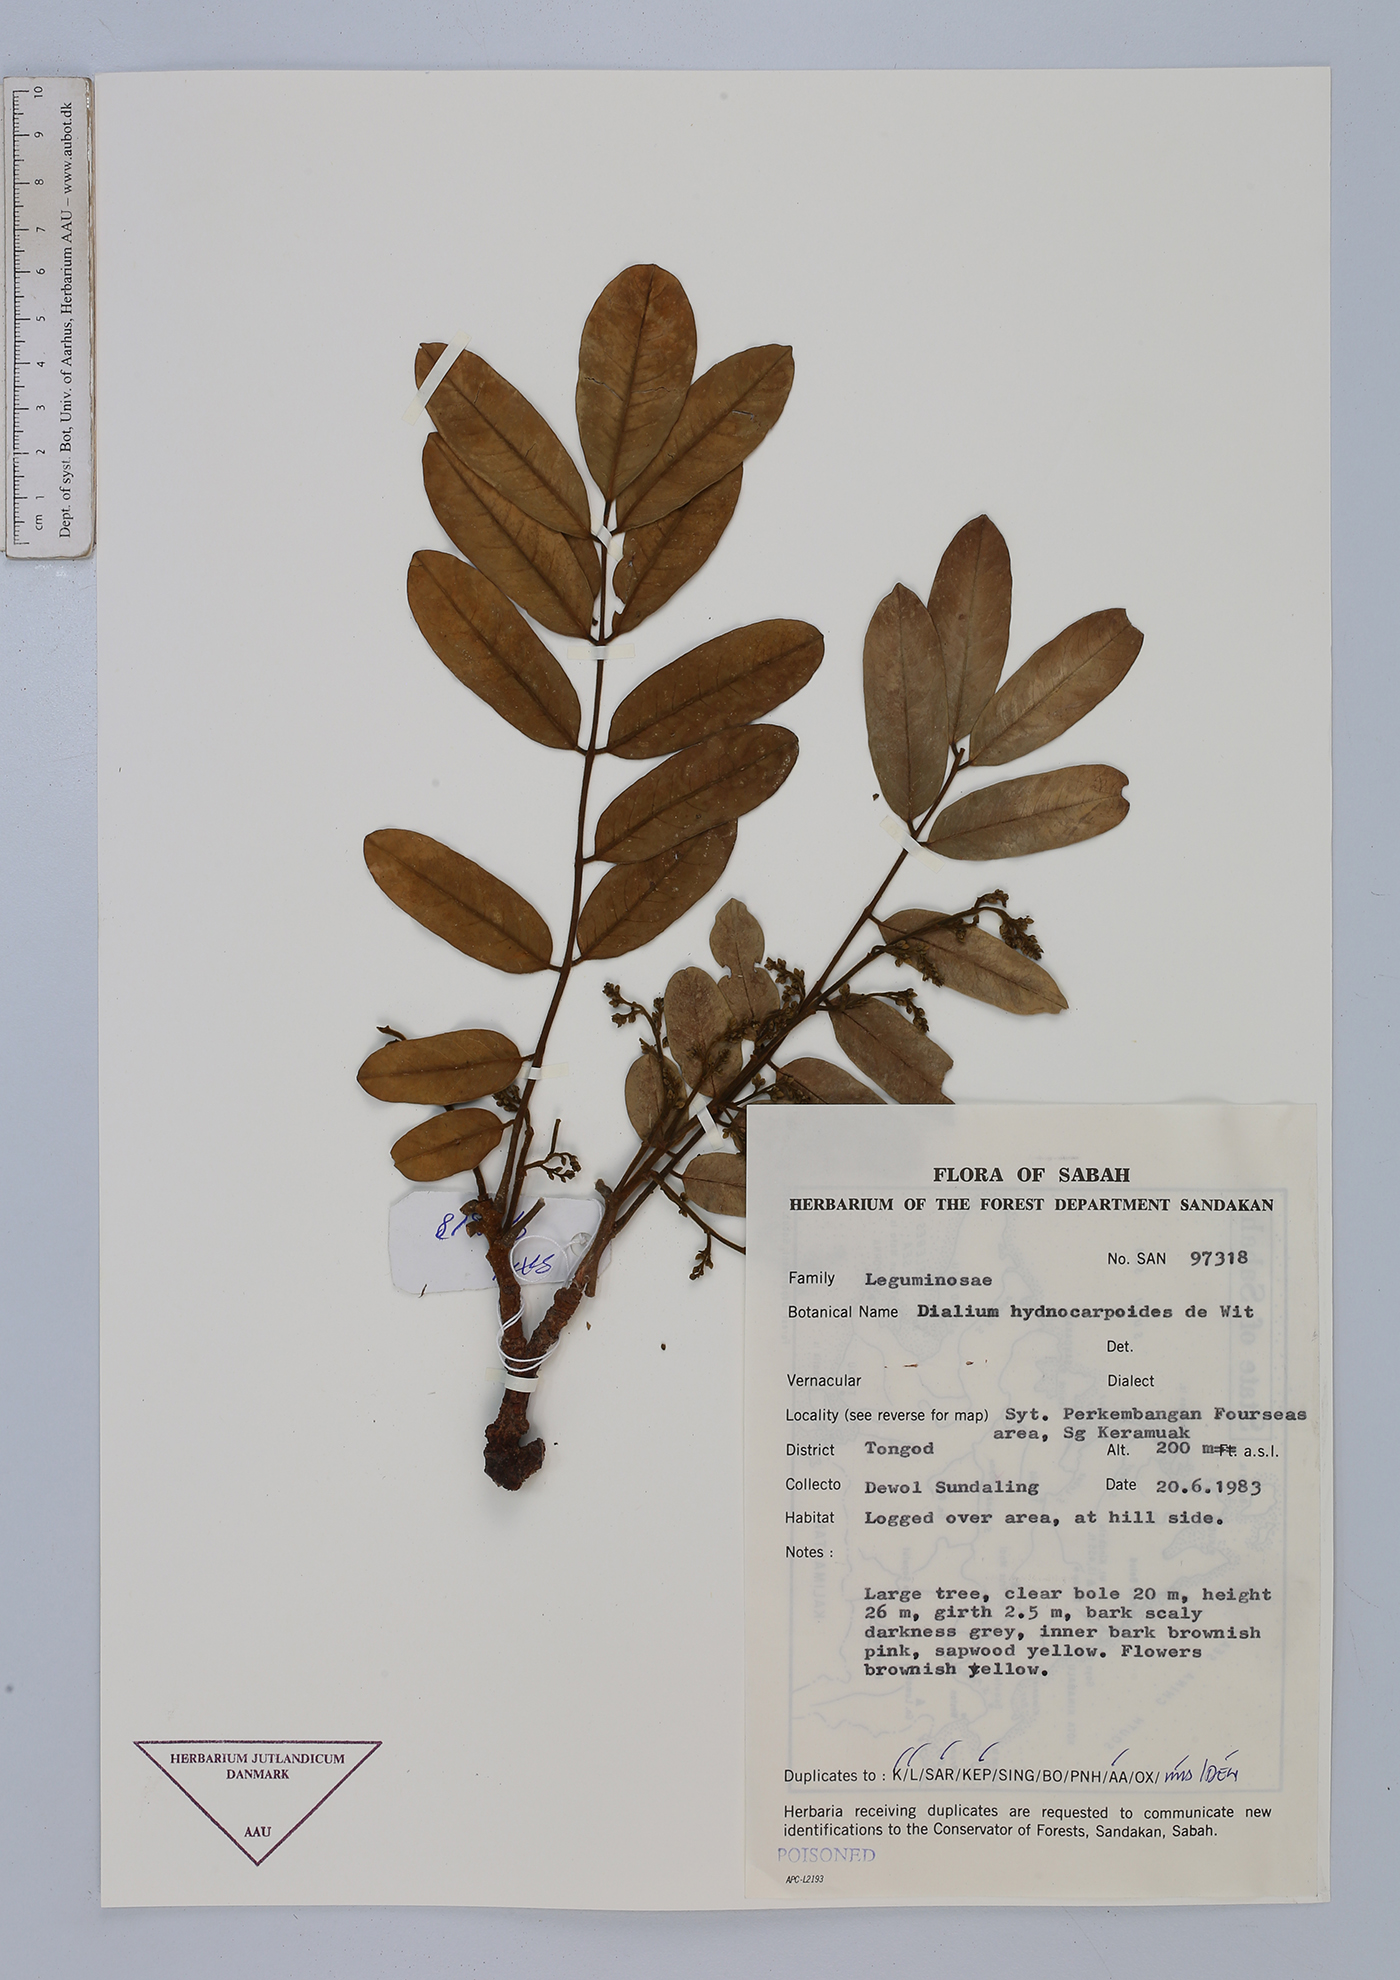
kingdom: Plantae
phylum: Tracheophyta
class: Magnoliopsida
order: Fabales
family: Fabaceae
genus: Dialium
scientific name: Dialium hydnocarpoides
